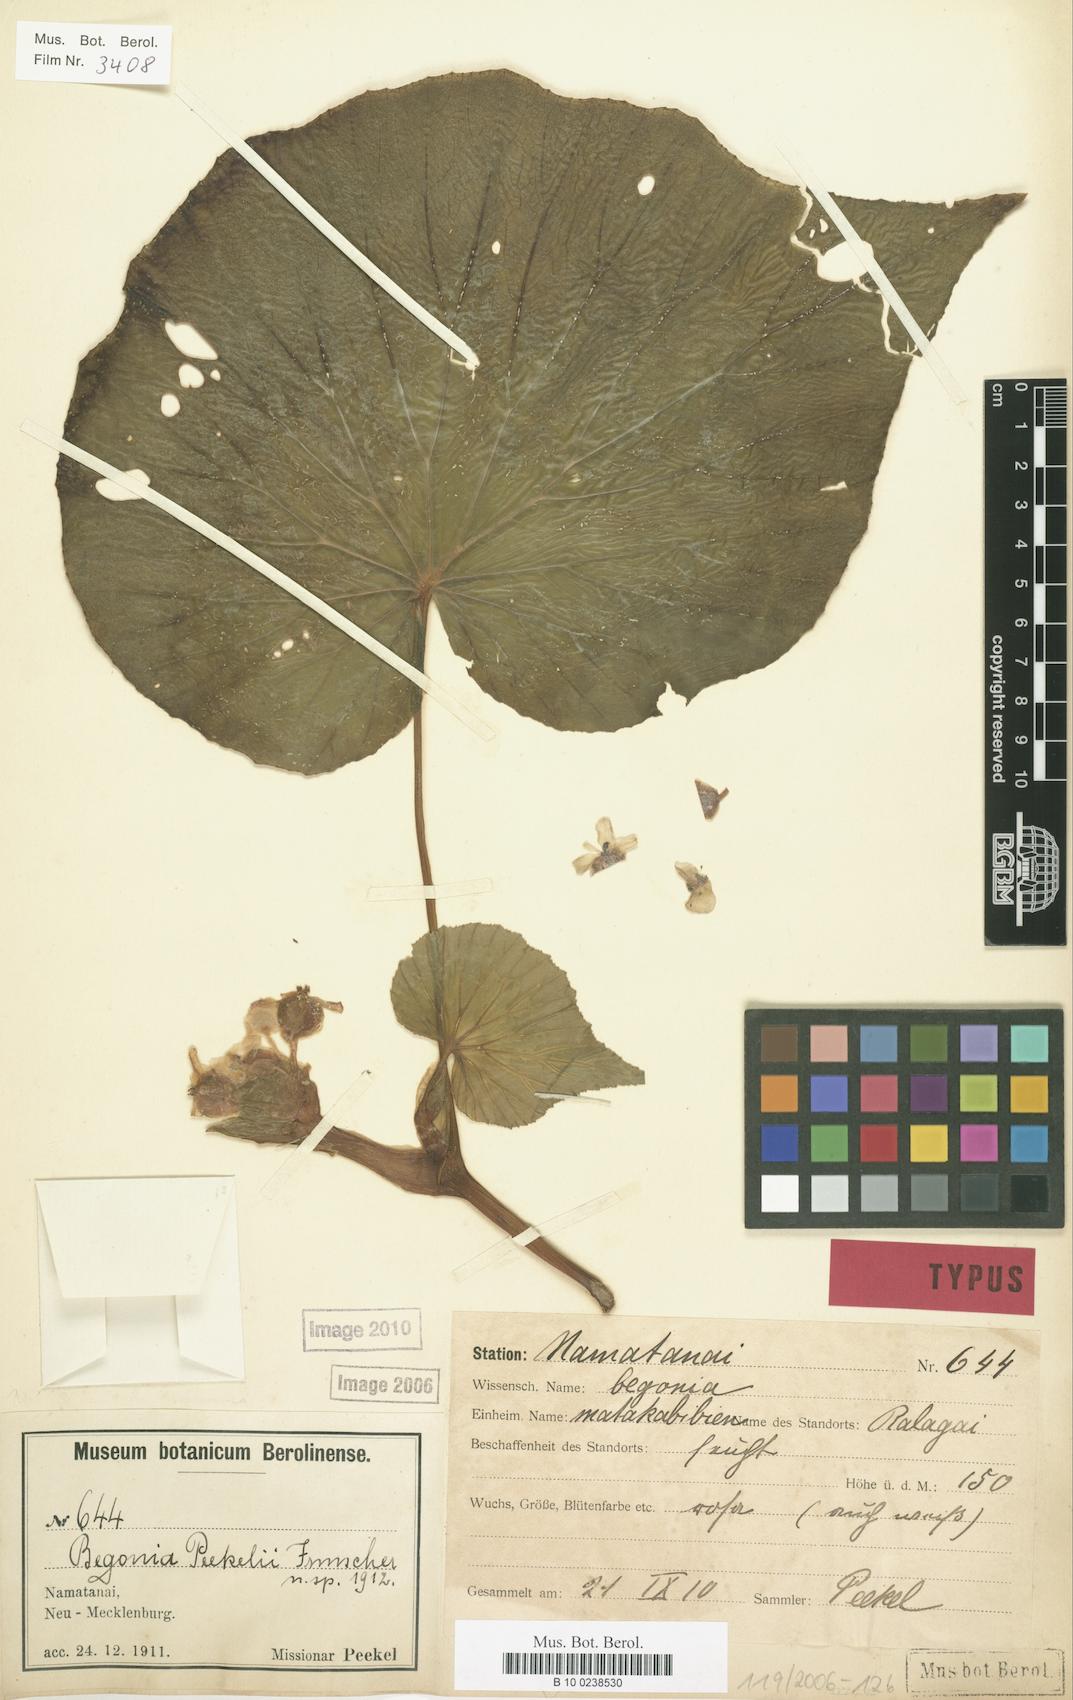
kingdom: Plantae
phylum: Tracheophyta
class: Magnoliopsida
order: Cucurbitales
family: Begoniaceae
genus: Begonia
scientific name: Begonia peekelii
